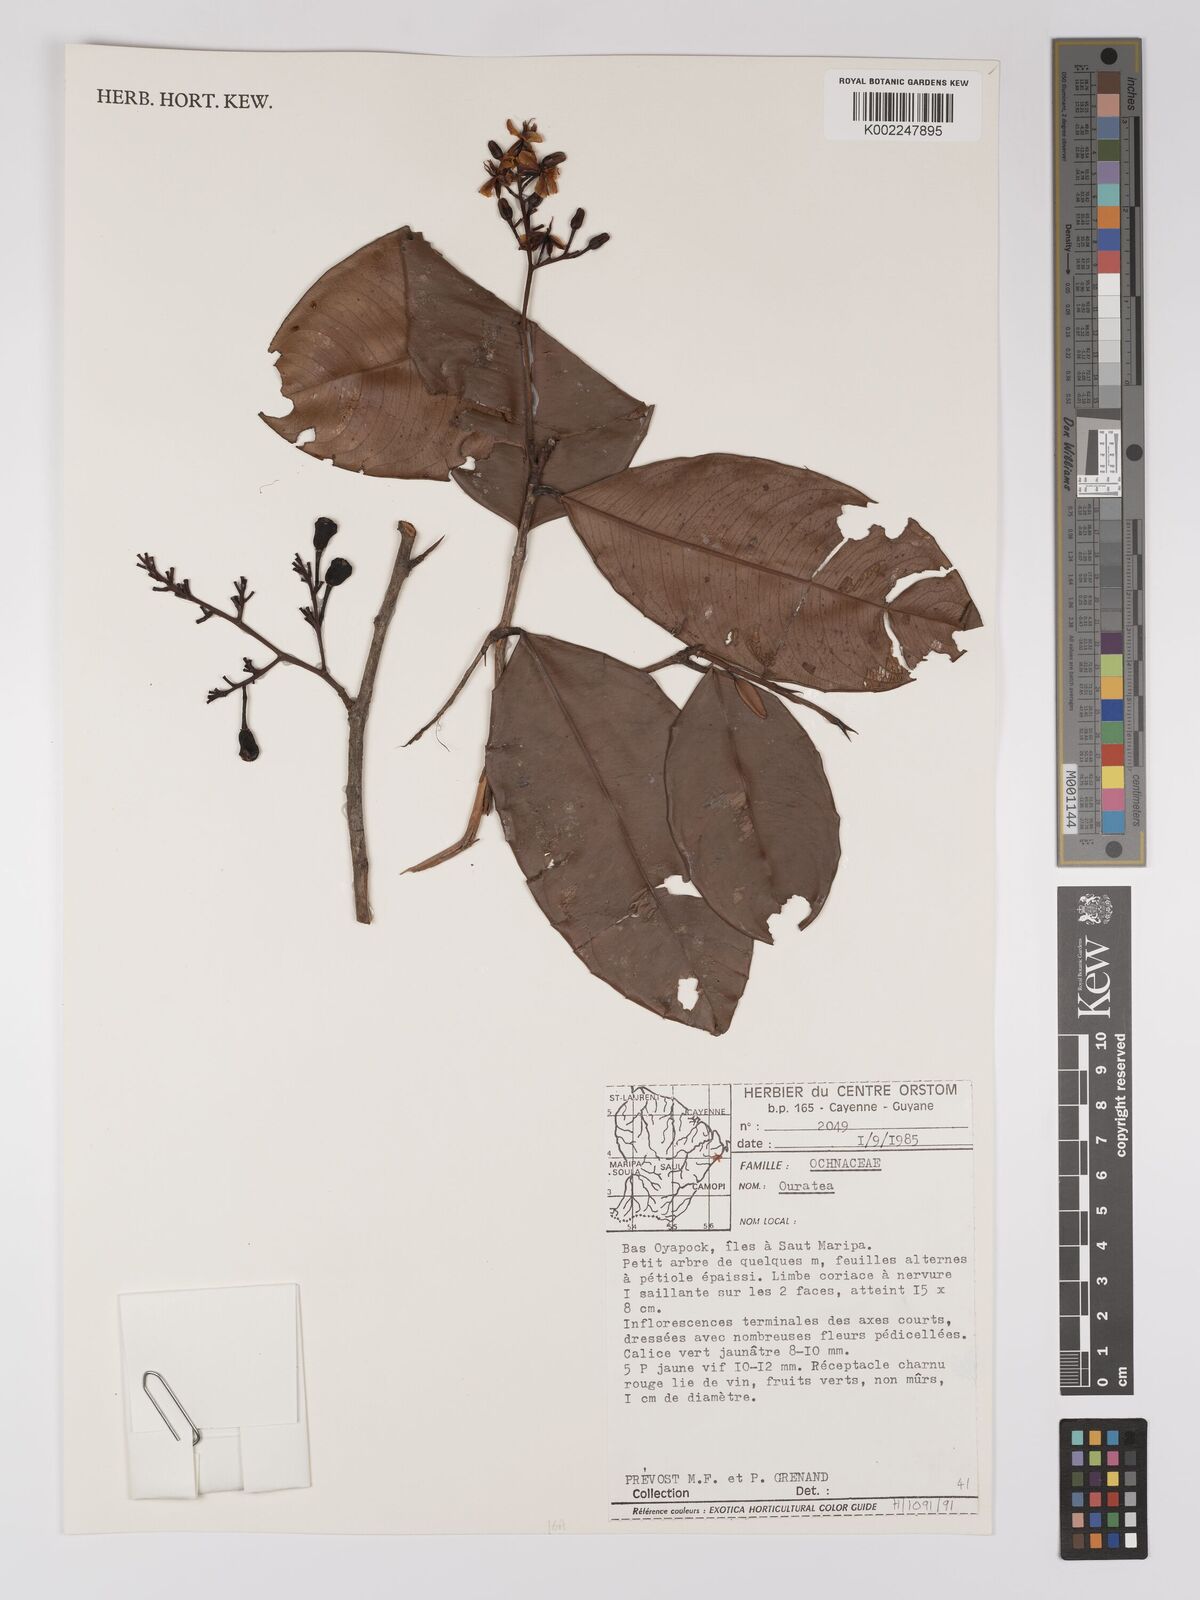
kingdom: Plantae
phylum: Tracheophyta
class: Magnoliopsida
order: Malpighiales
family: Ochnaceae
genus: Ouratea
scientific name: Ouratea
